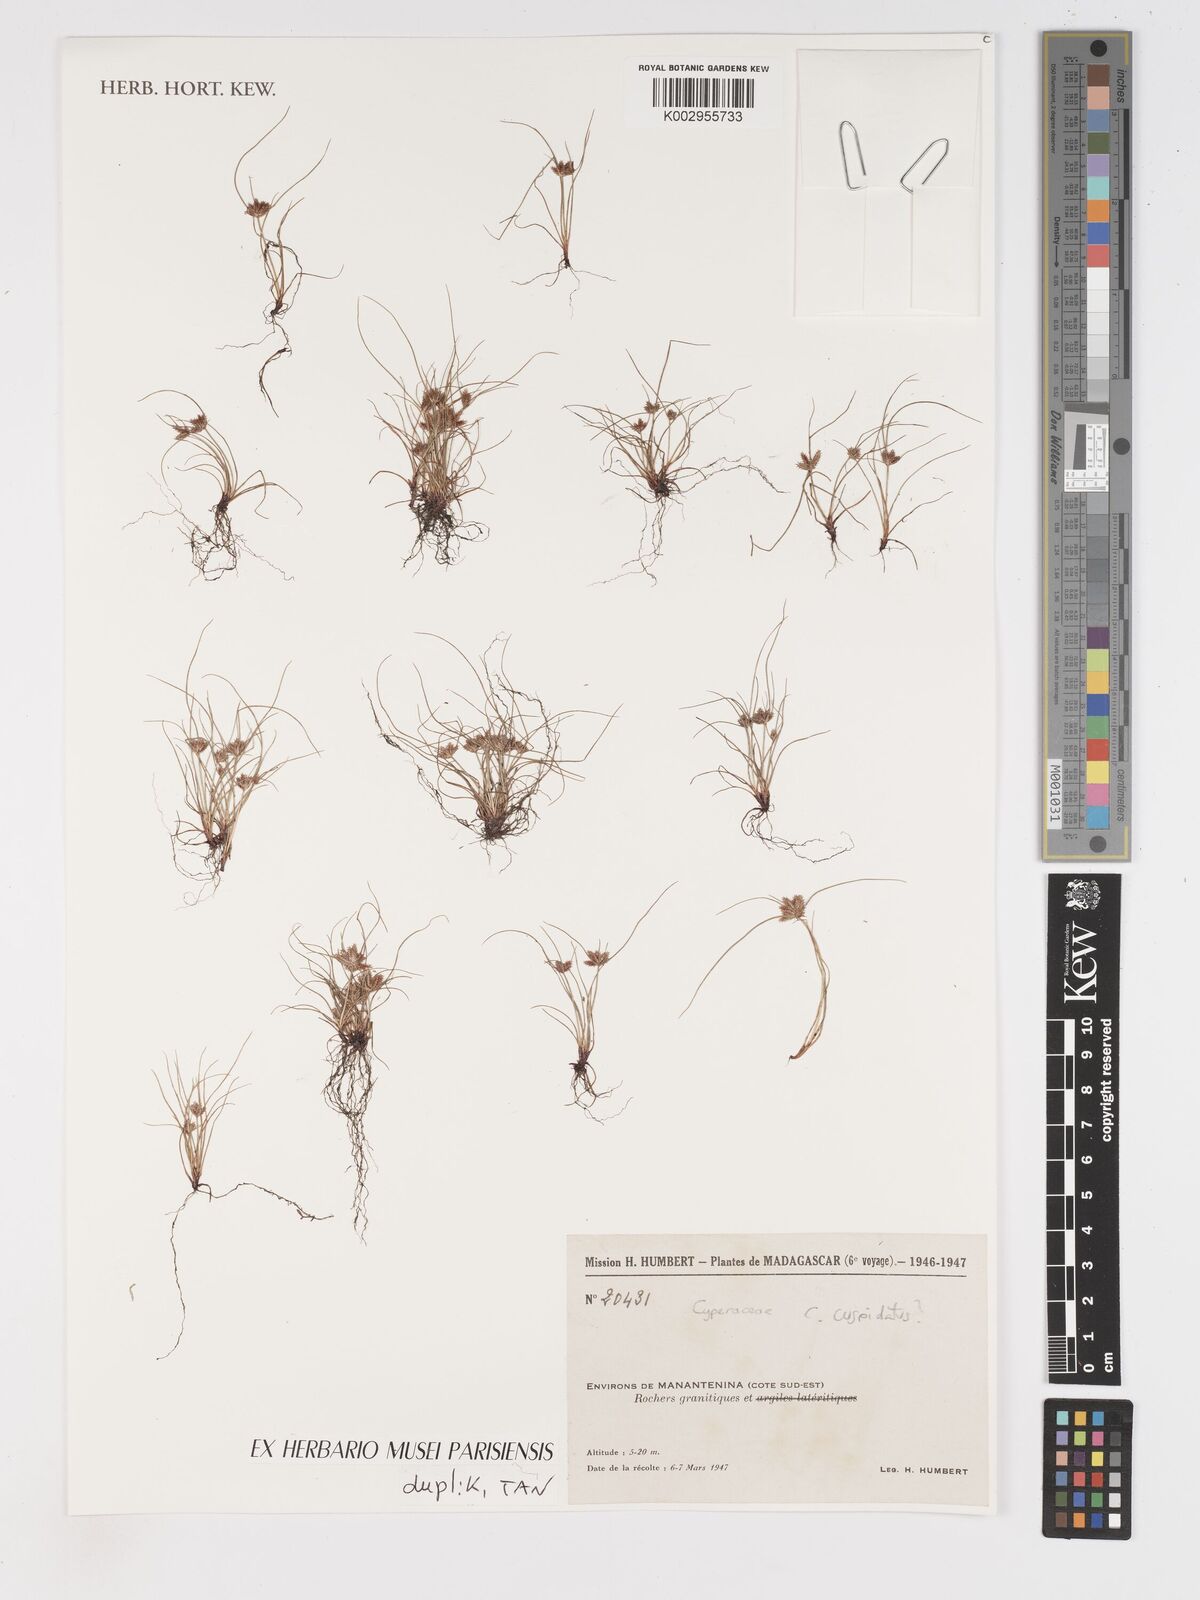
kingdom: Plantae
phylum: Tracheophyta
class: Liliopsida
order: Poales
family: Cyperaceae
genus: Cyperus
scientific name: Cyperus cuspidatus
